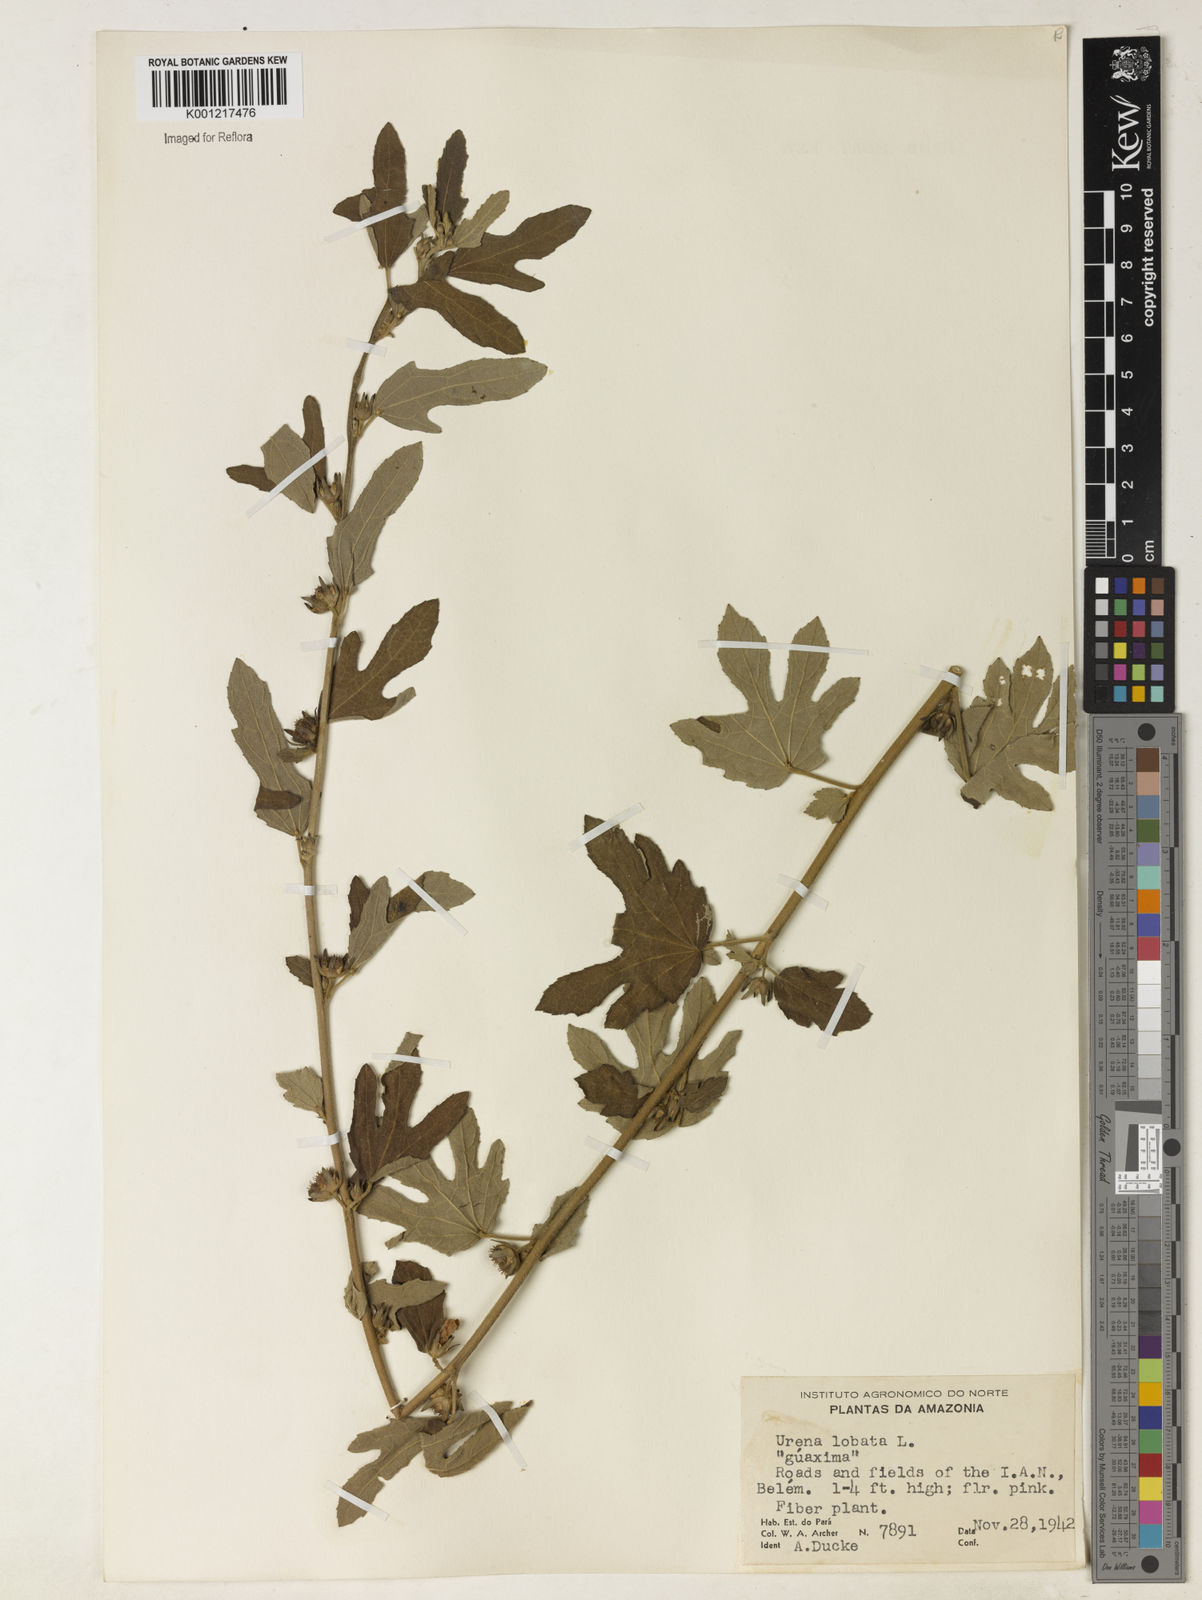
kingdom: Plantae
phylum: Tracheophyta
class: Magnoliopsida
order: Malvales
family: Malvaceae
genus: Urena
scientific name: Urena lobata
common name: Caesarweed
